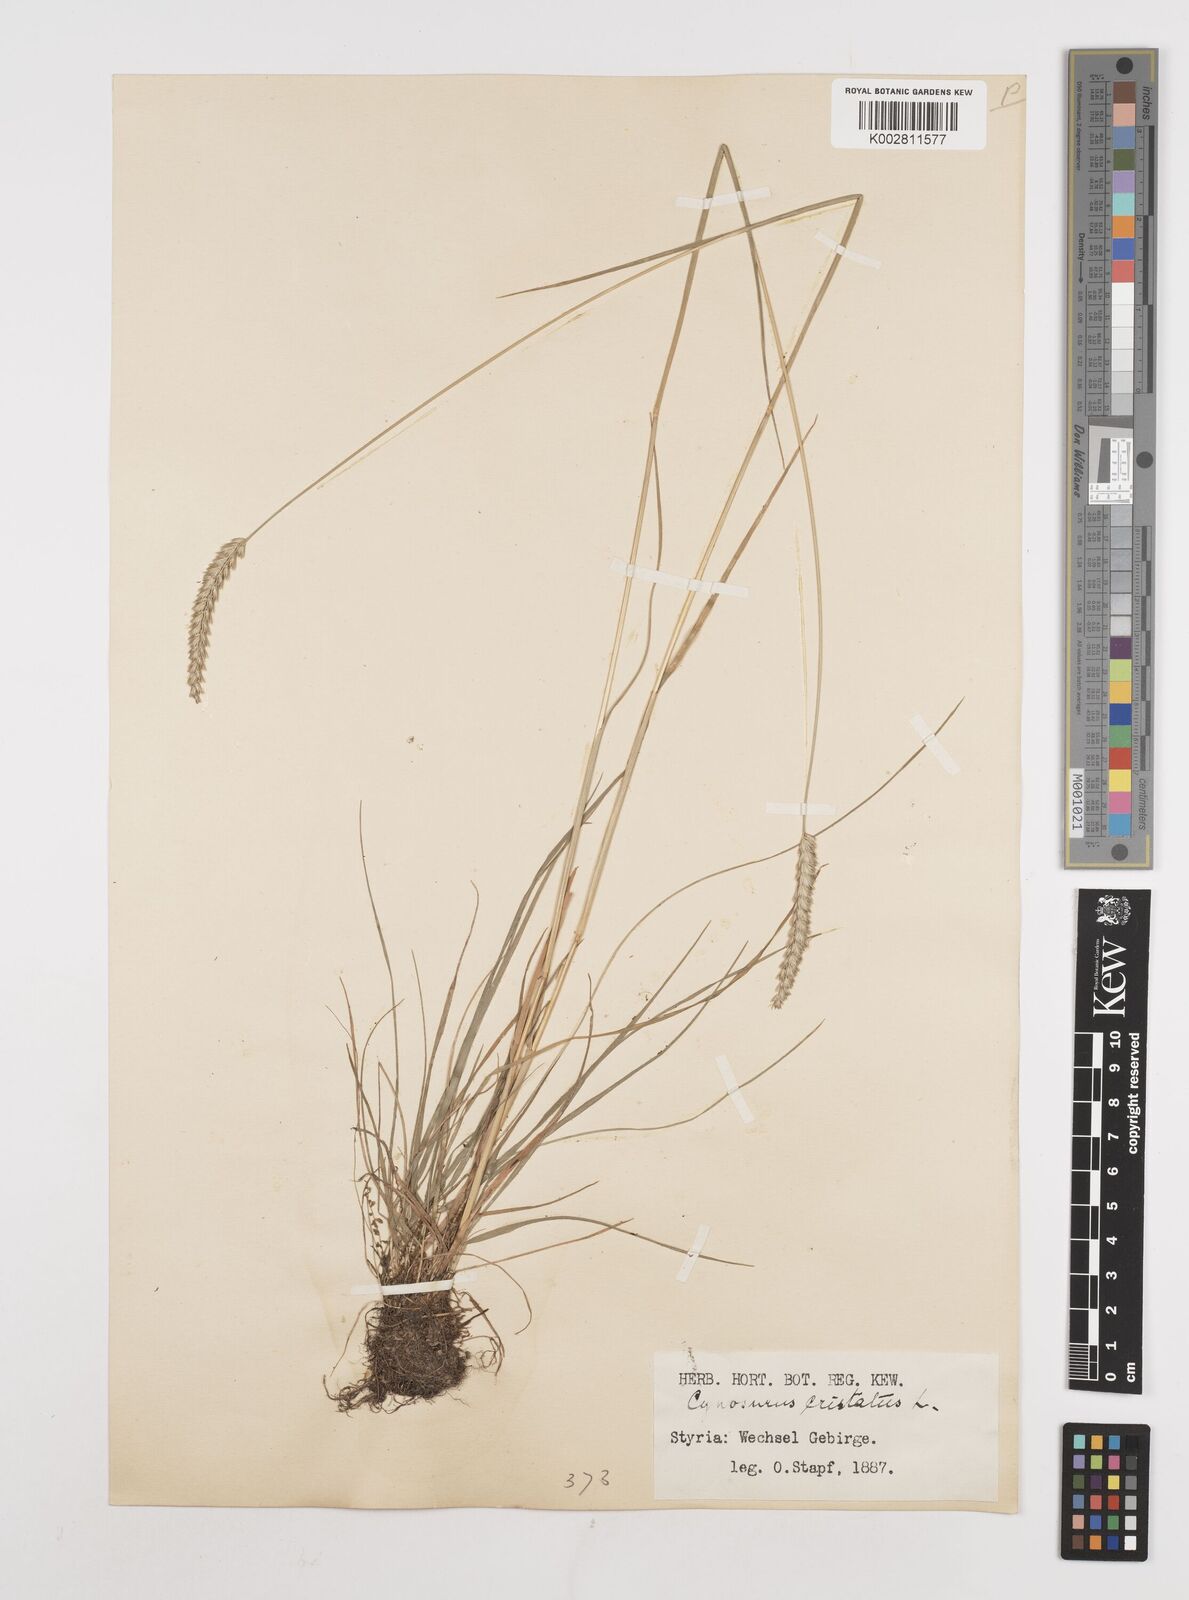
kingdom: Plantae
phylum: Tracheophyta
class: Liliopsida
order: Poales
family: Poaceae
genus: Cynosurus
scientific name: Cynosurus cristatus
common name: Crested dog's-tail
